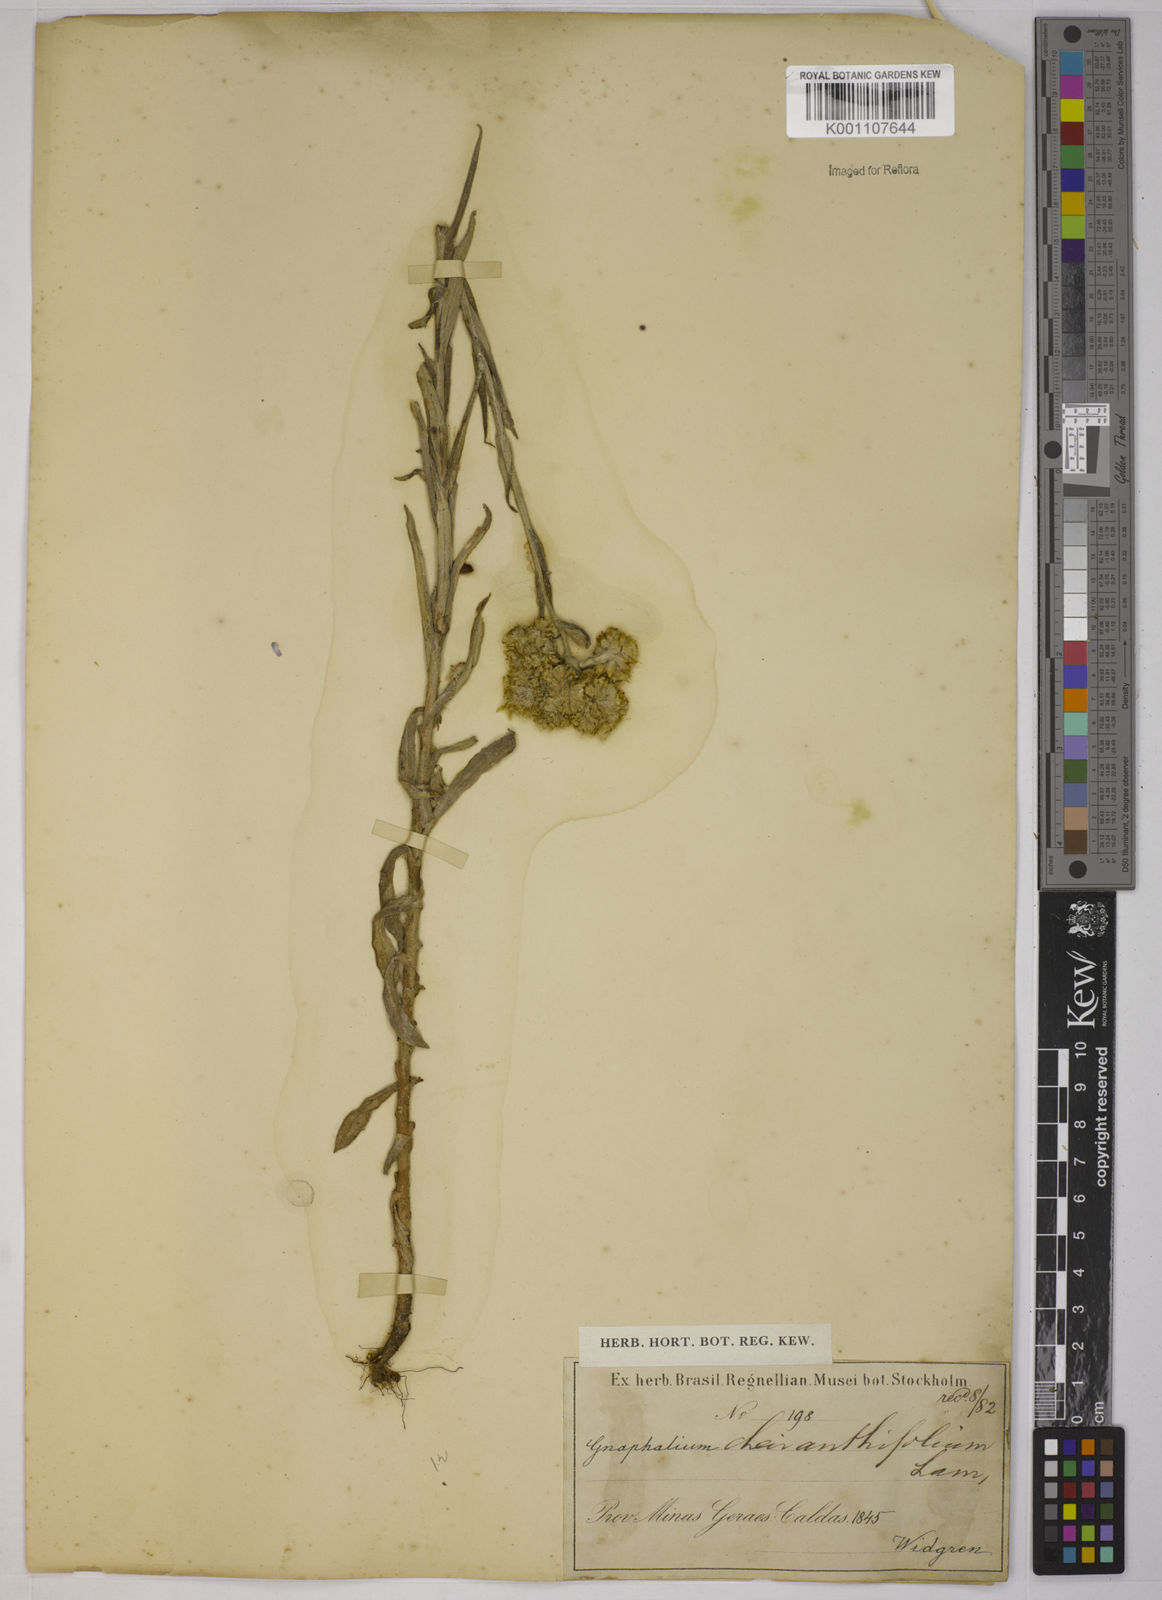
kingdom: Plantae
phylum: Tracheophyta
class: Magnoliopsida
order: Asterales
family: Asteraceae
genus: Pseudognaphalium
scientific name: Pseudognaphalium cheiranthifolium
